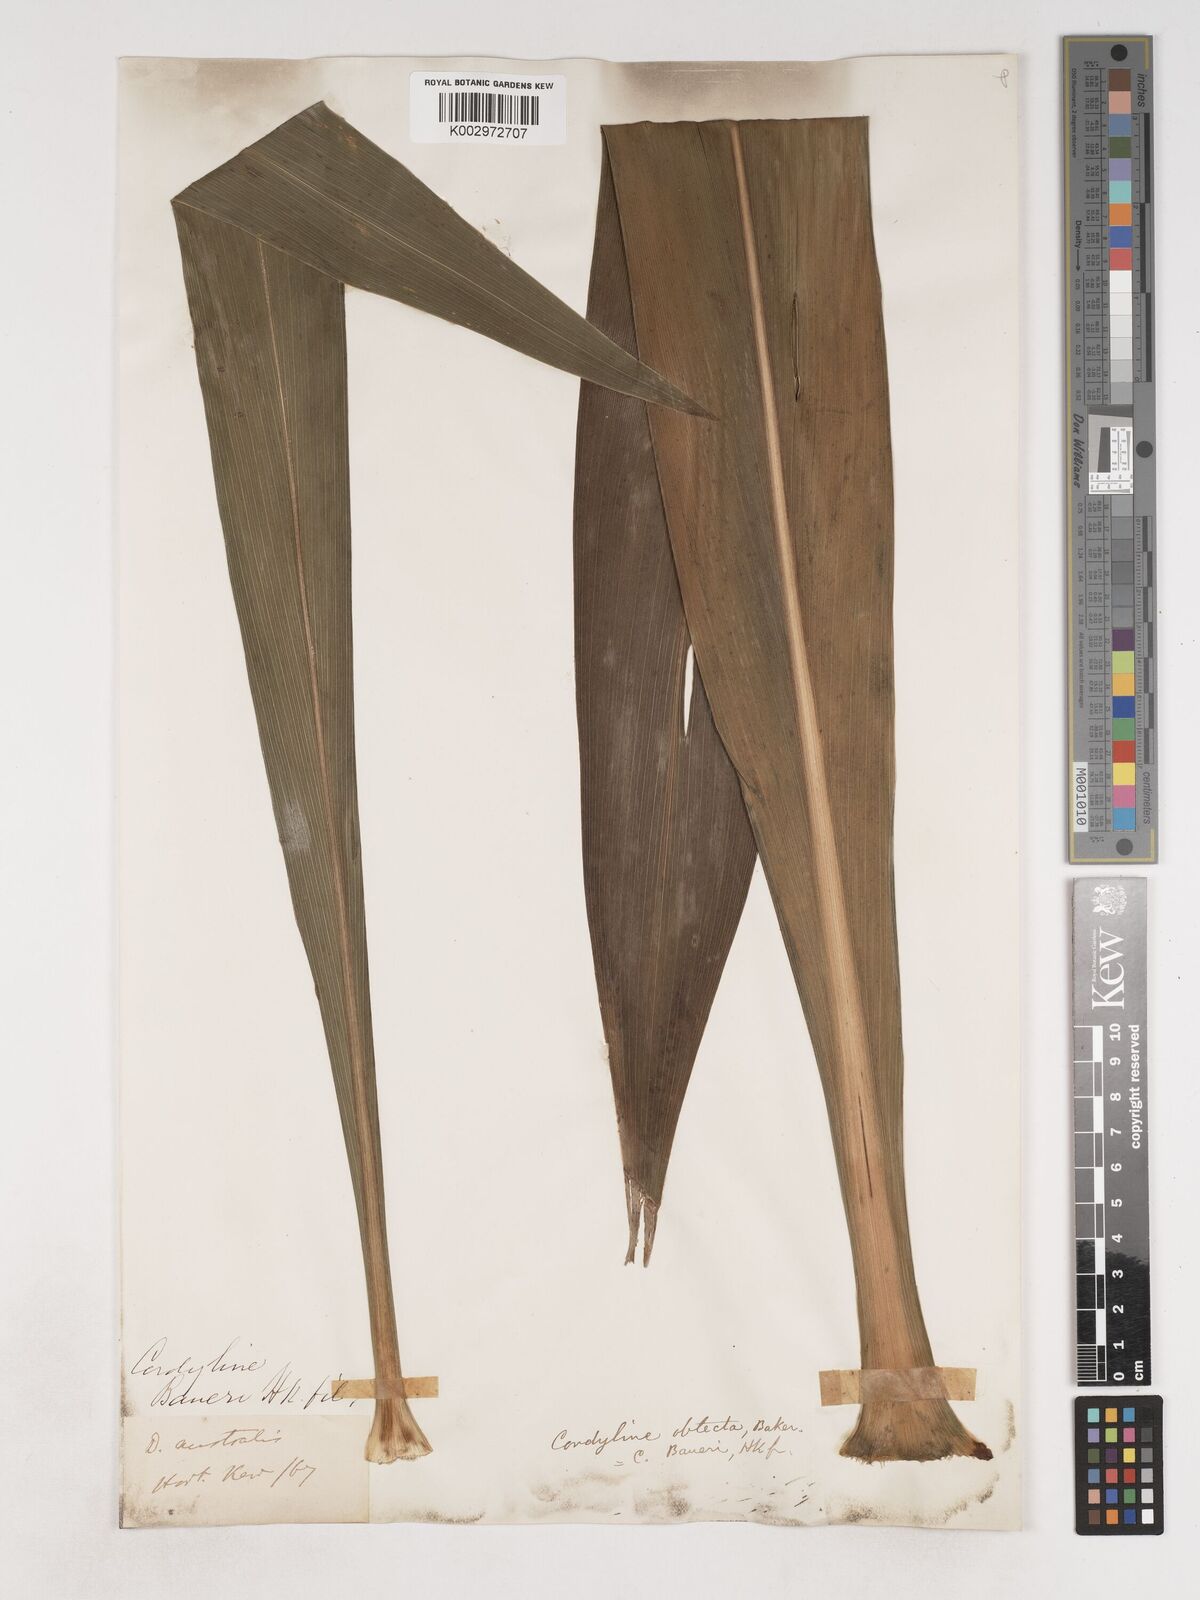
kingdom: Plantae
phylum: Tracheophyta
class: Liliopsida
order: Asparagales
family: Asparagaceae
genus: Cordyline
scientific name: Cordyline obtecta
